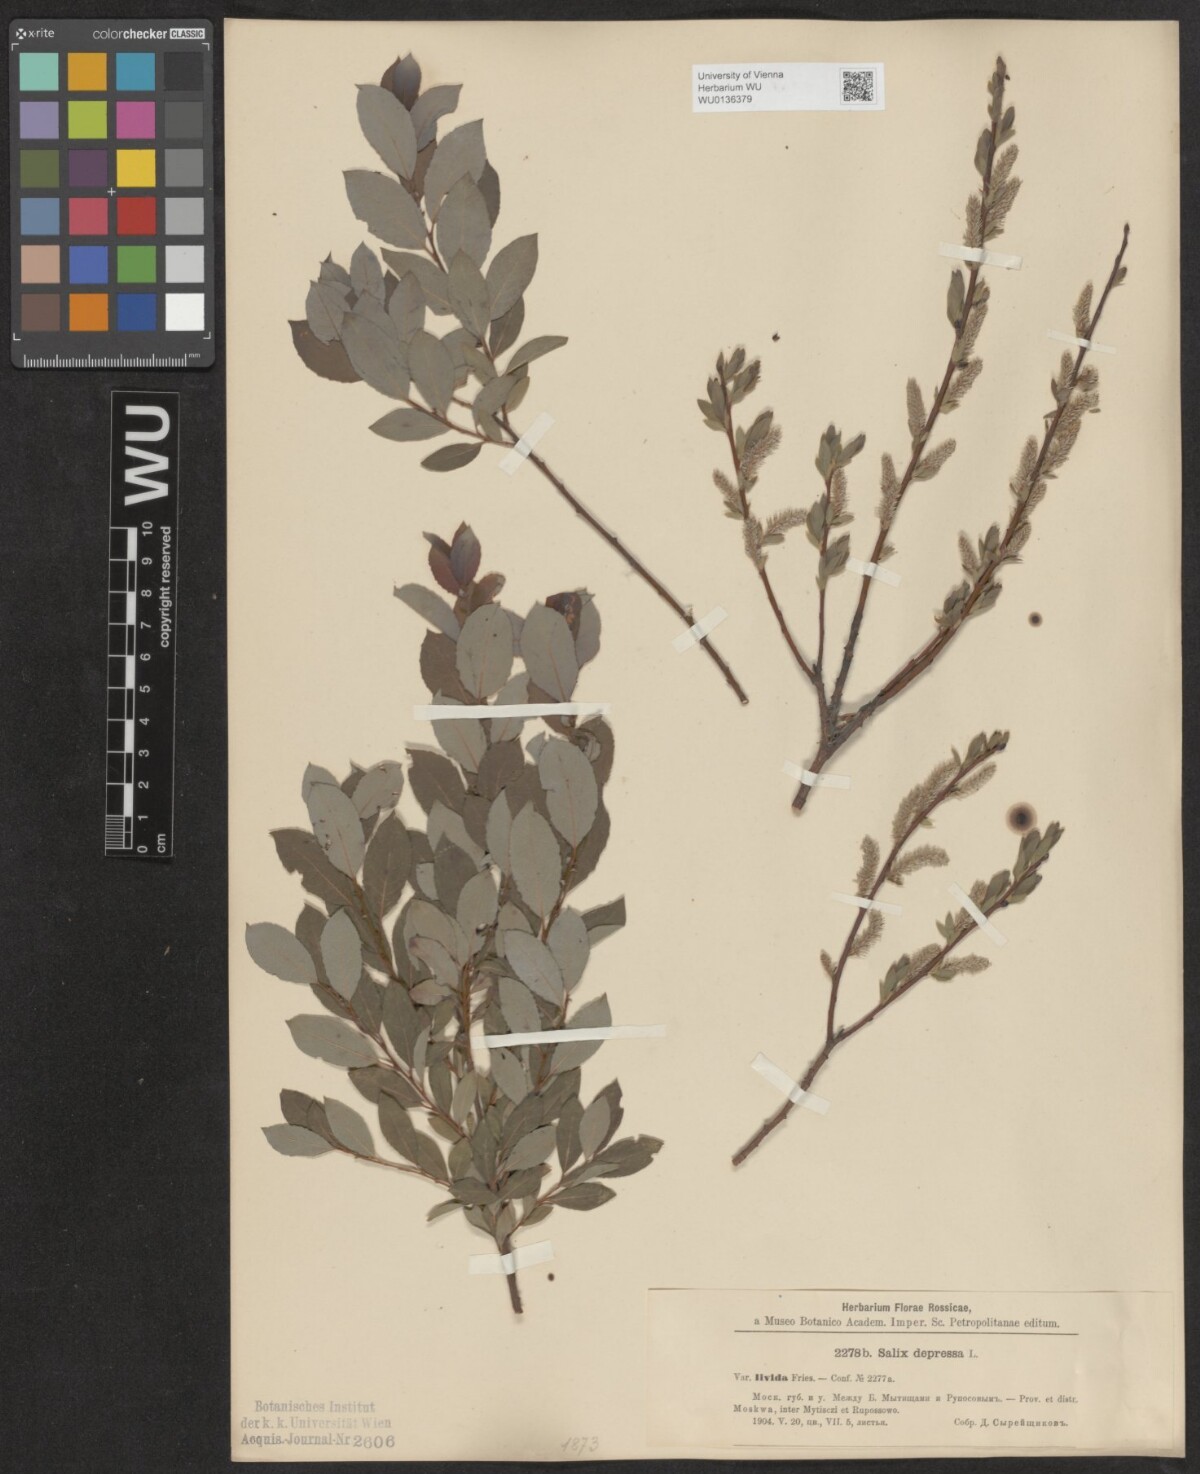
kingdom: Plantae
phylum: Tracheophyta
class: Magnoliopsida
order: Malpighiales
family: Salicaceae
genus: Salix
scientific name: Salix lanata
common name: Woolly willow
